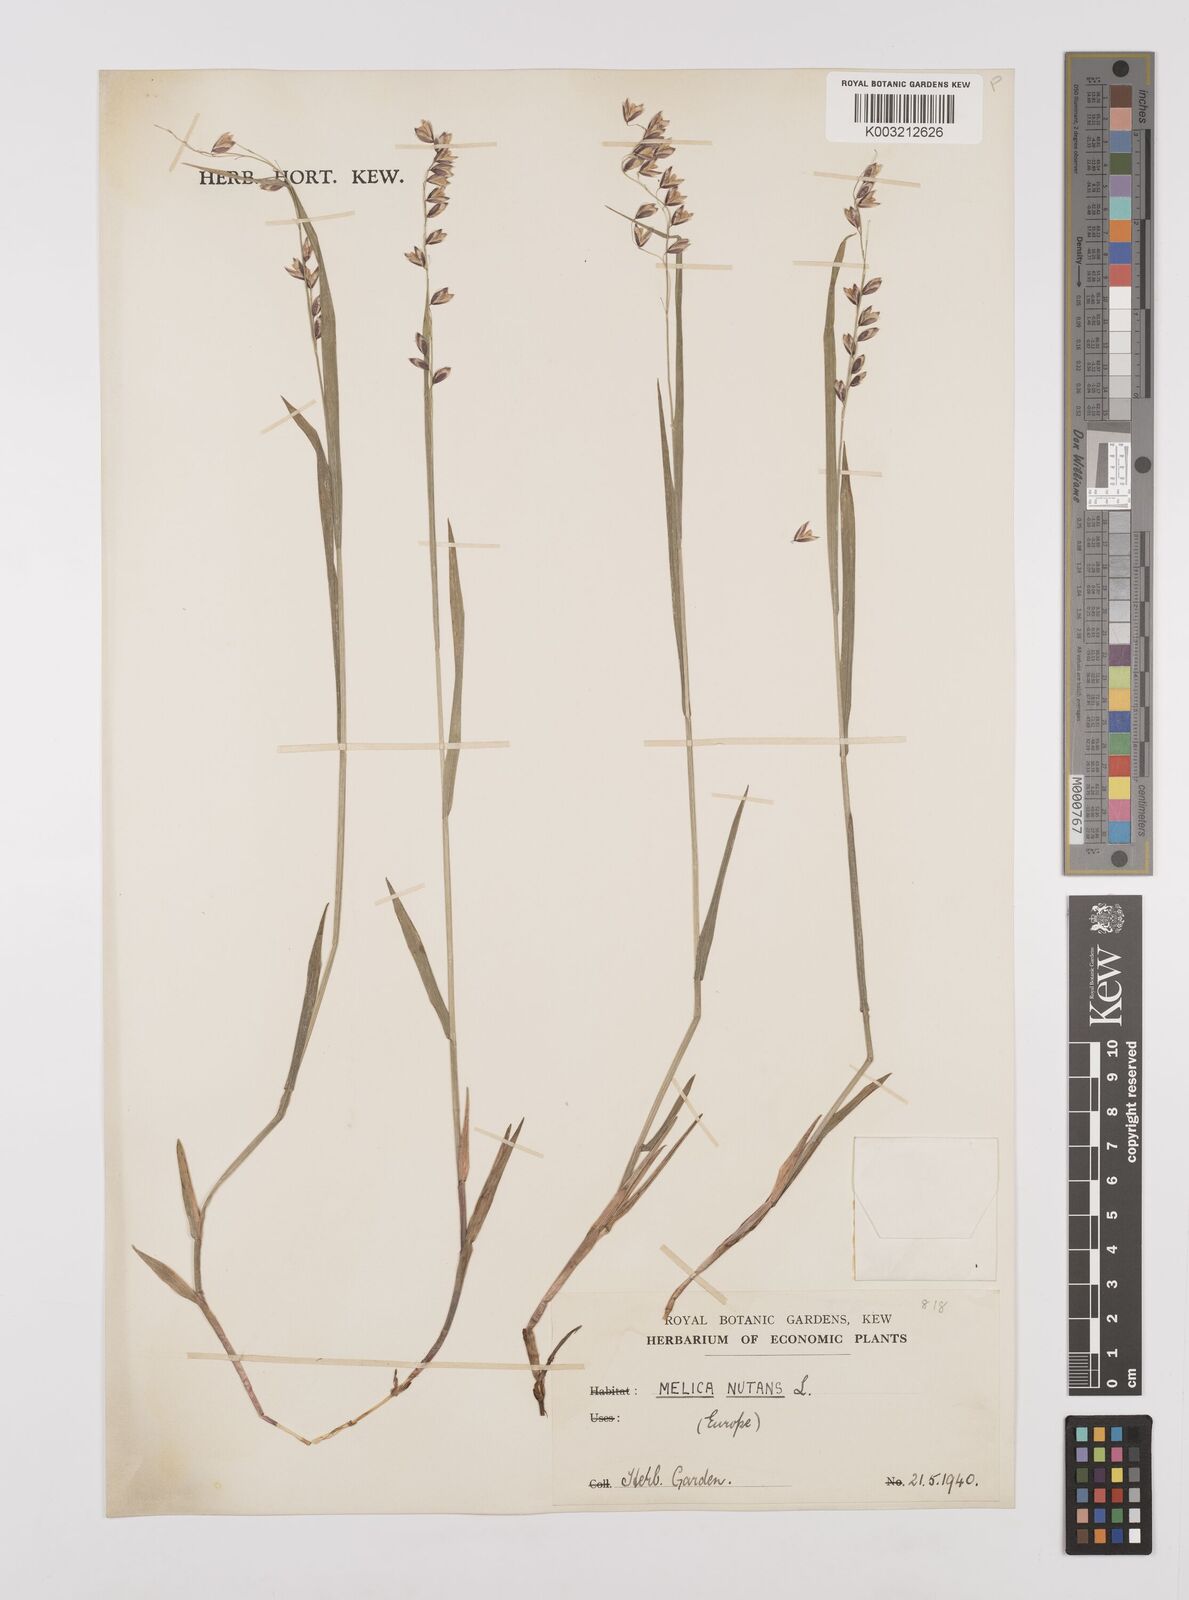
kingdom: Plantae
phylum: Tracheophyta
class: Liliopsida
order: Poales
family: Poaceae
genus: Melica
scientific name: Melica
